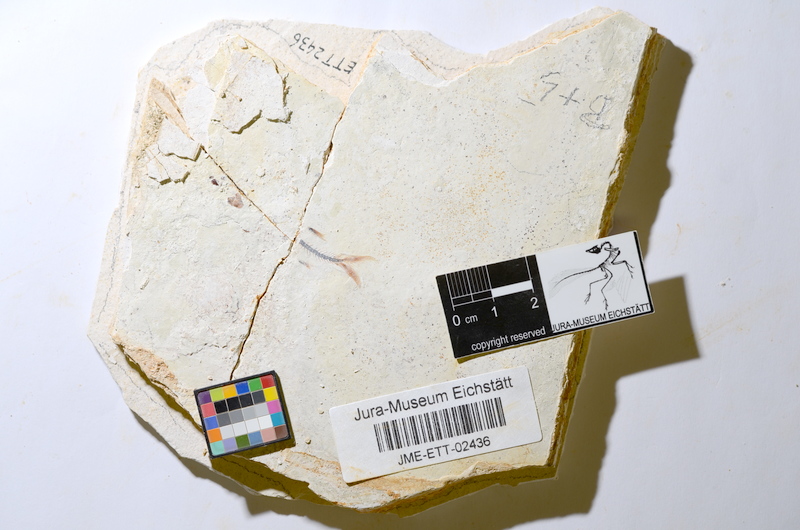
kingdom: Animalia
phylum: Chordata
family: Ascalaboidae
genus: Ebertichthys
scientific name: Ebertichthys ettlingensis
